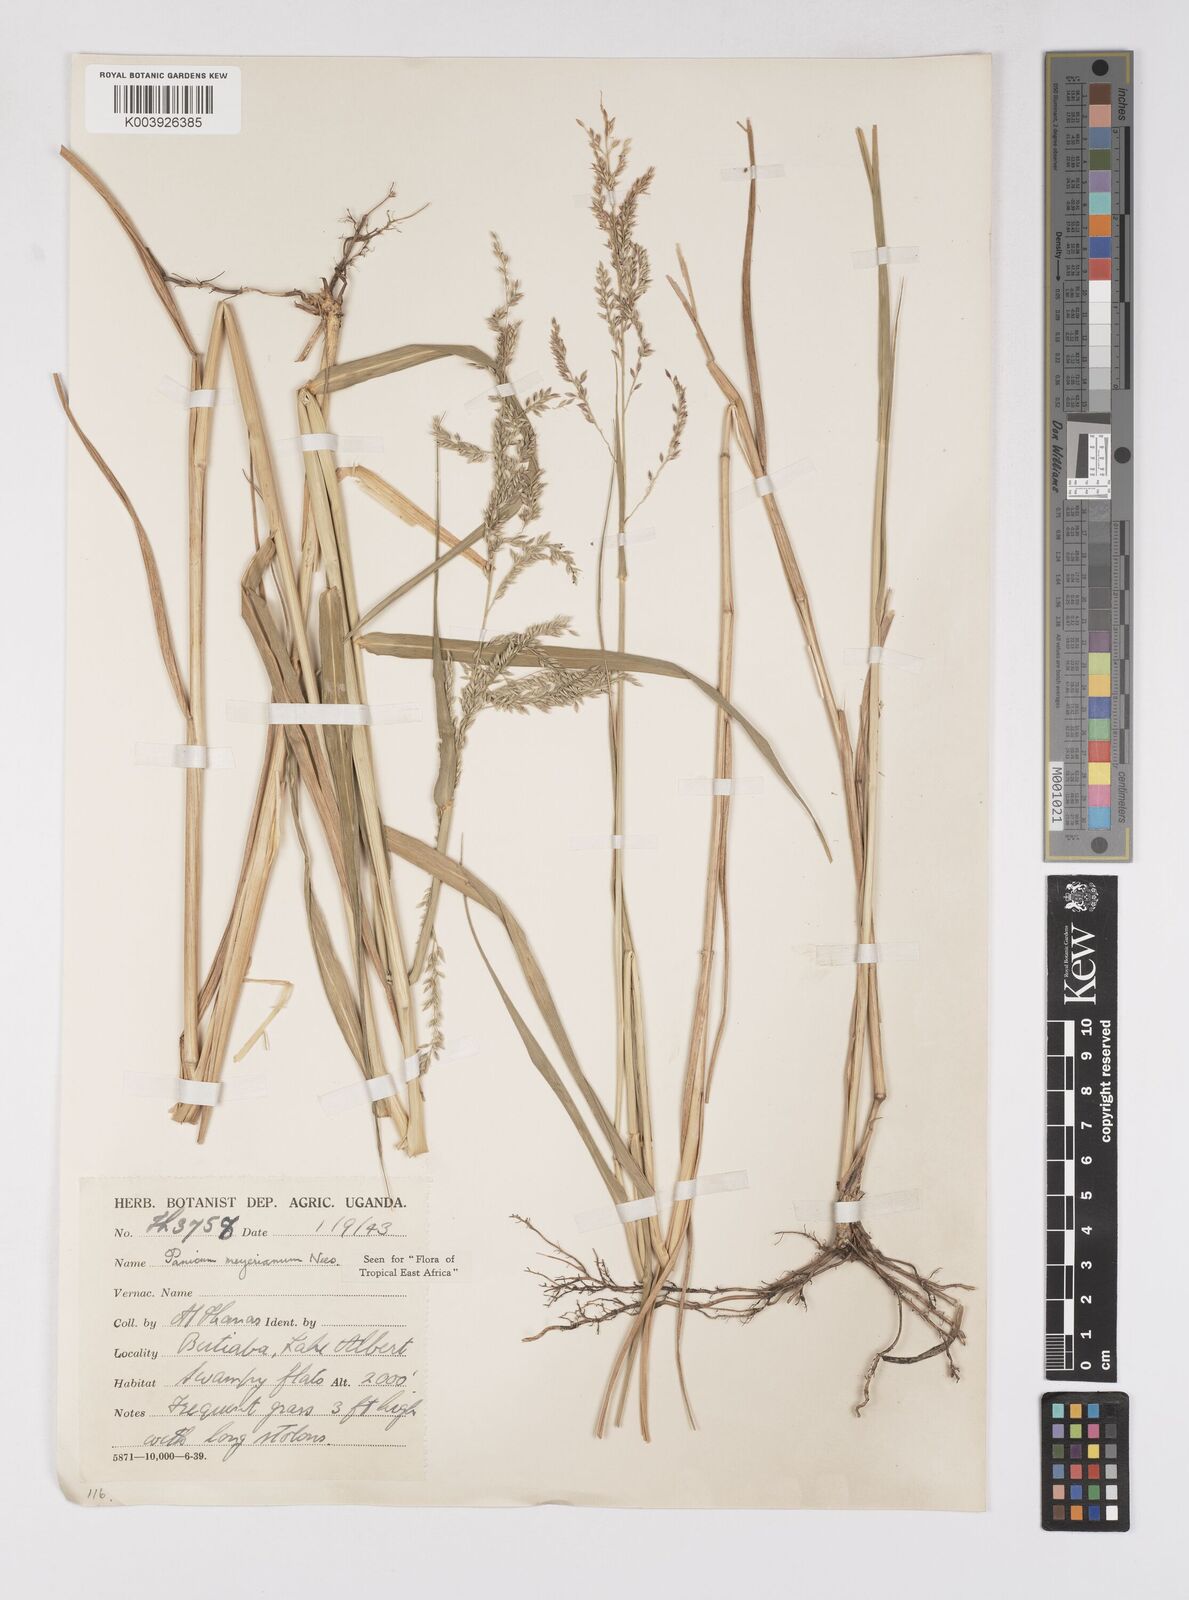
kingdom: Plantae
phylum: Tracheophyta
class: Liliopsida
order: Poales
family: Poaceae
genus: Eriochloa
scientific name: Eriochloa meyeriana
